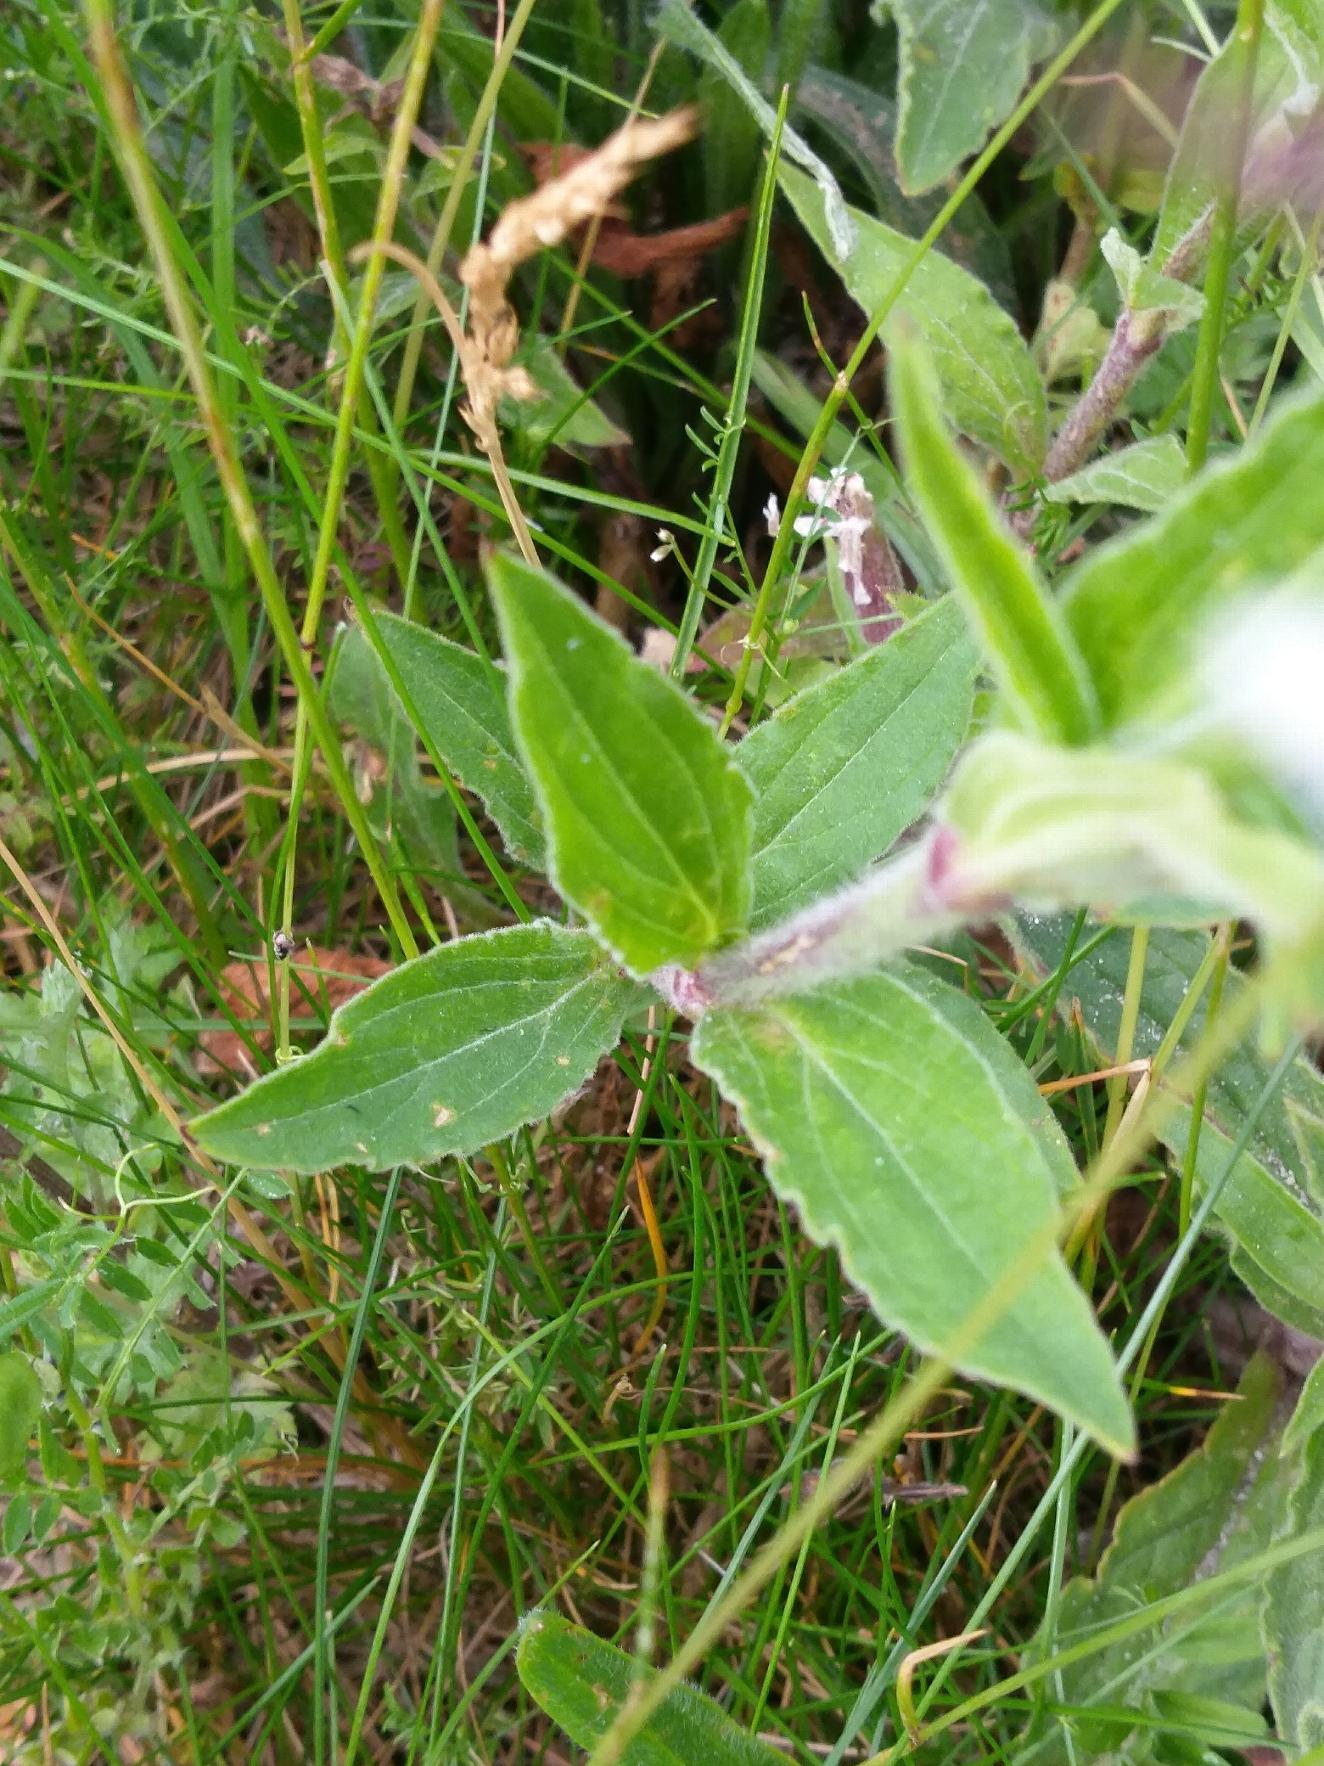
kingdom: Plantae
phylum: Tracheophyta
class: Magnoliopsida
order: Caryophyllales
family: Caryophyllaceae
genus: Silene
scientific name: Silene latifolia
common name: Aftenpragtstjerne
